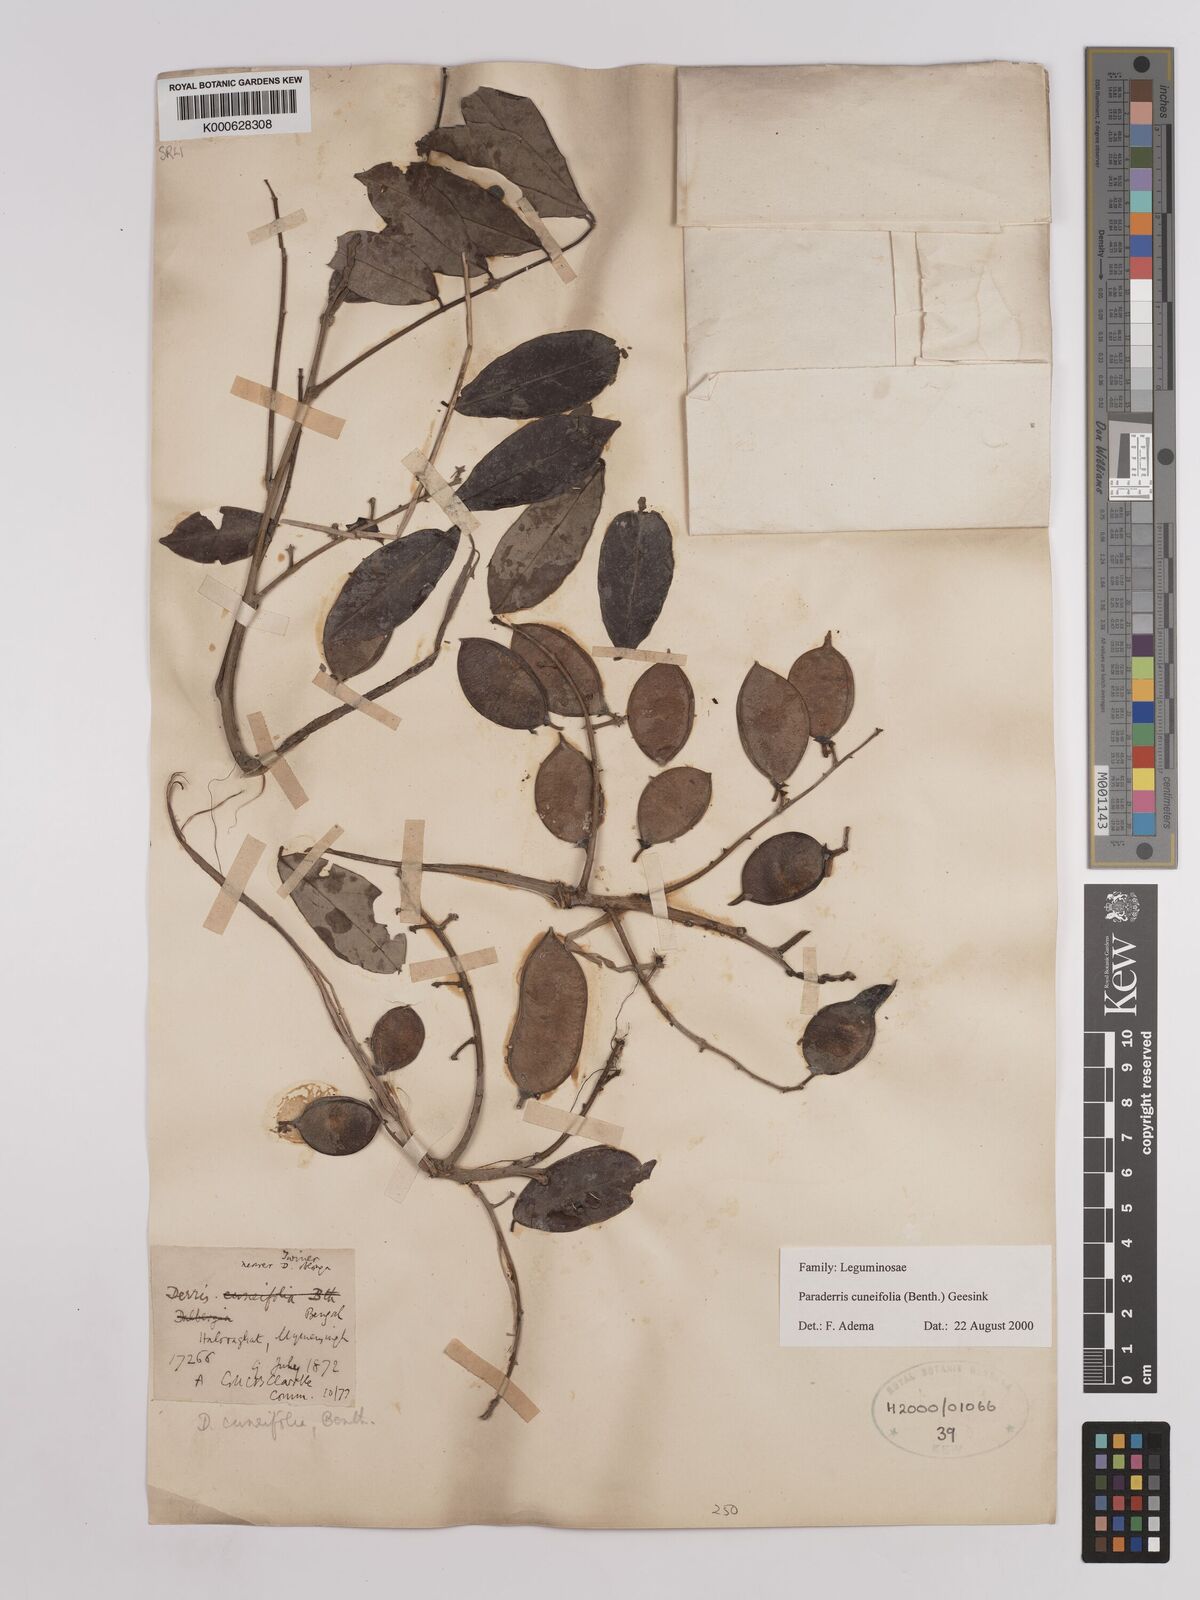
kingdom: Plantae
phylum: Tracheophyta
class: Magnoliopsida
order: Fabales
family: Fabaceae
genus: Derris
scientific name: Derris cuneifolia
